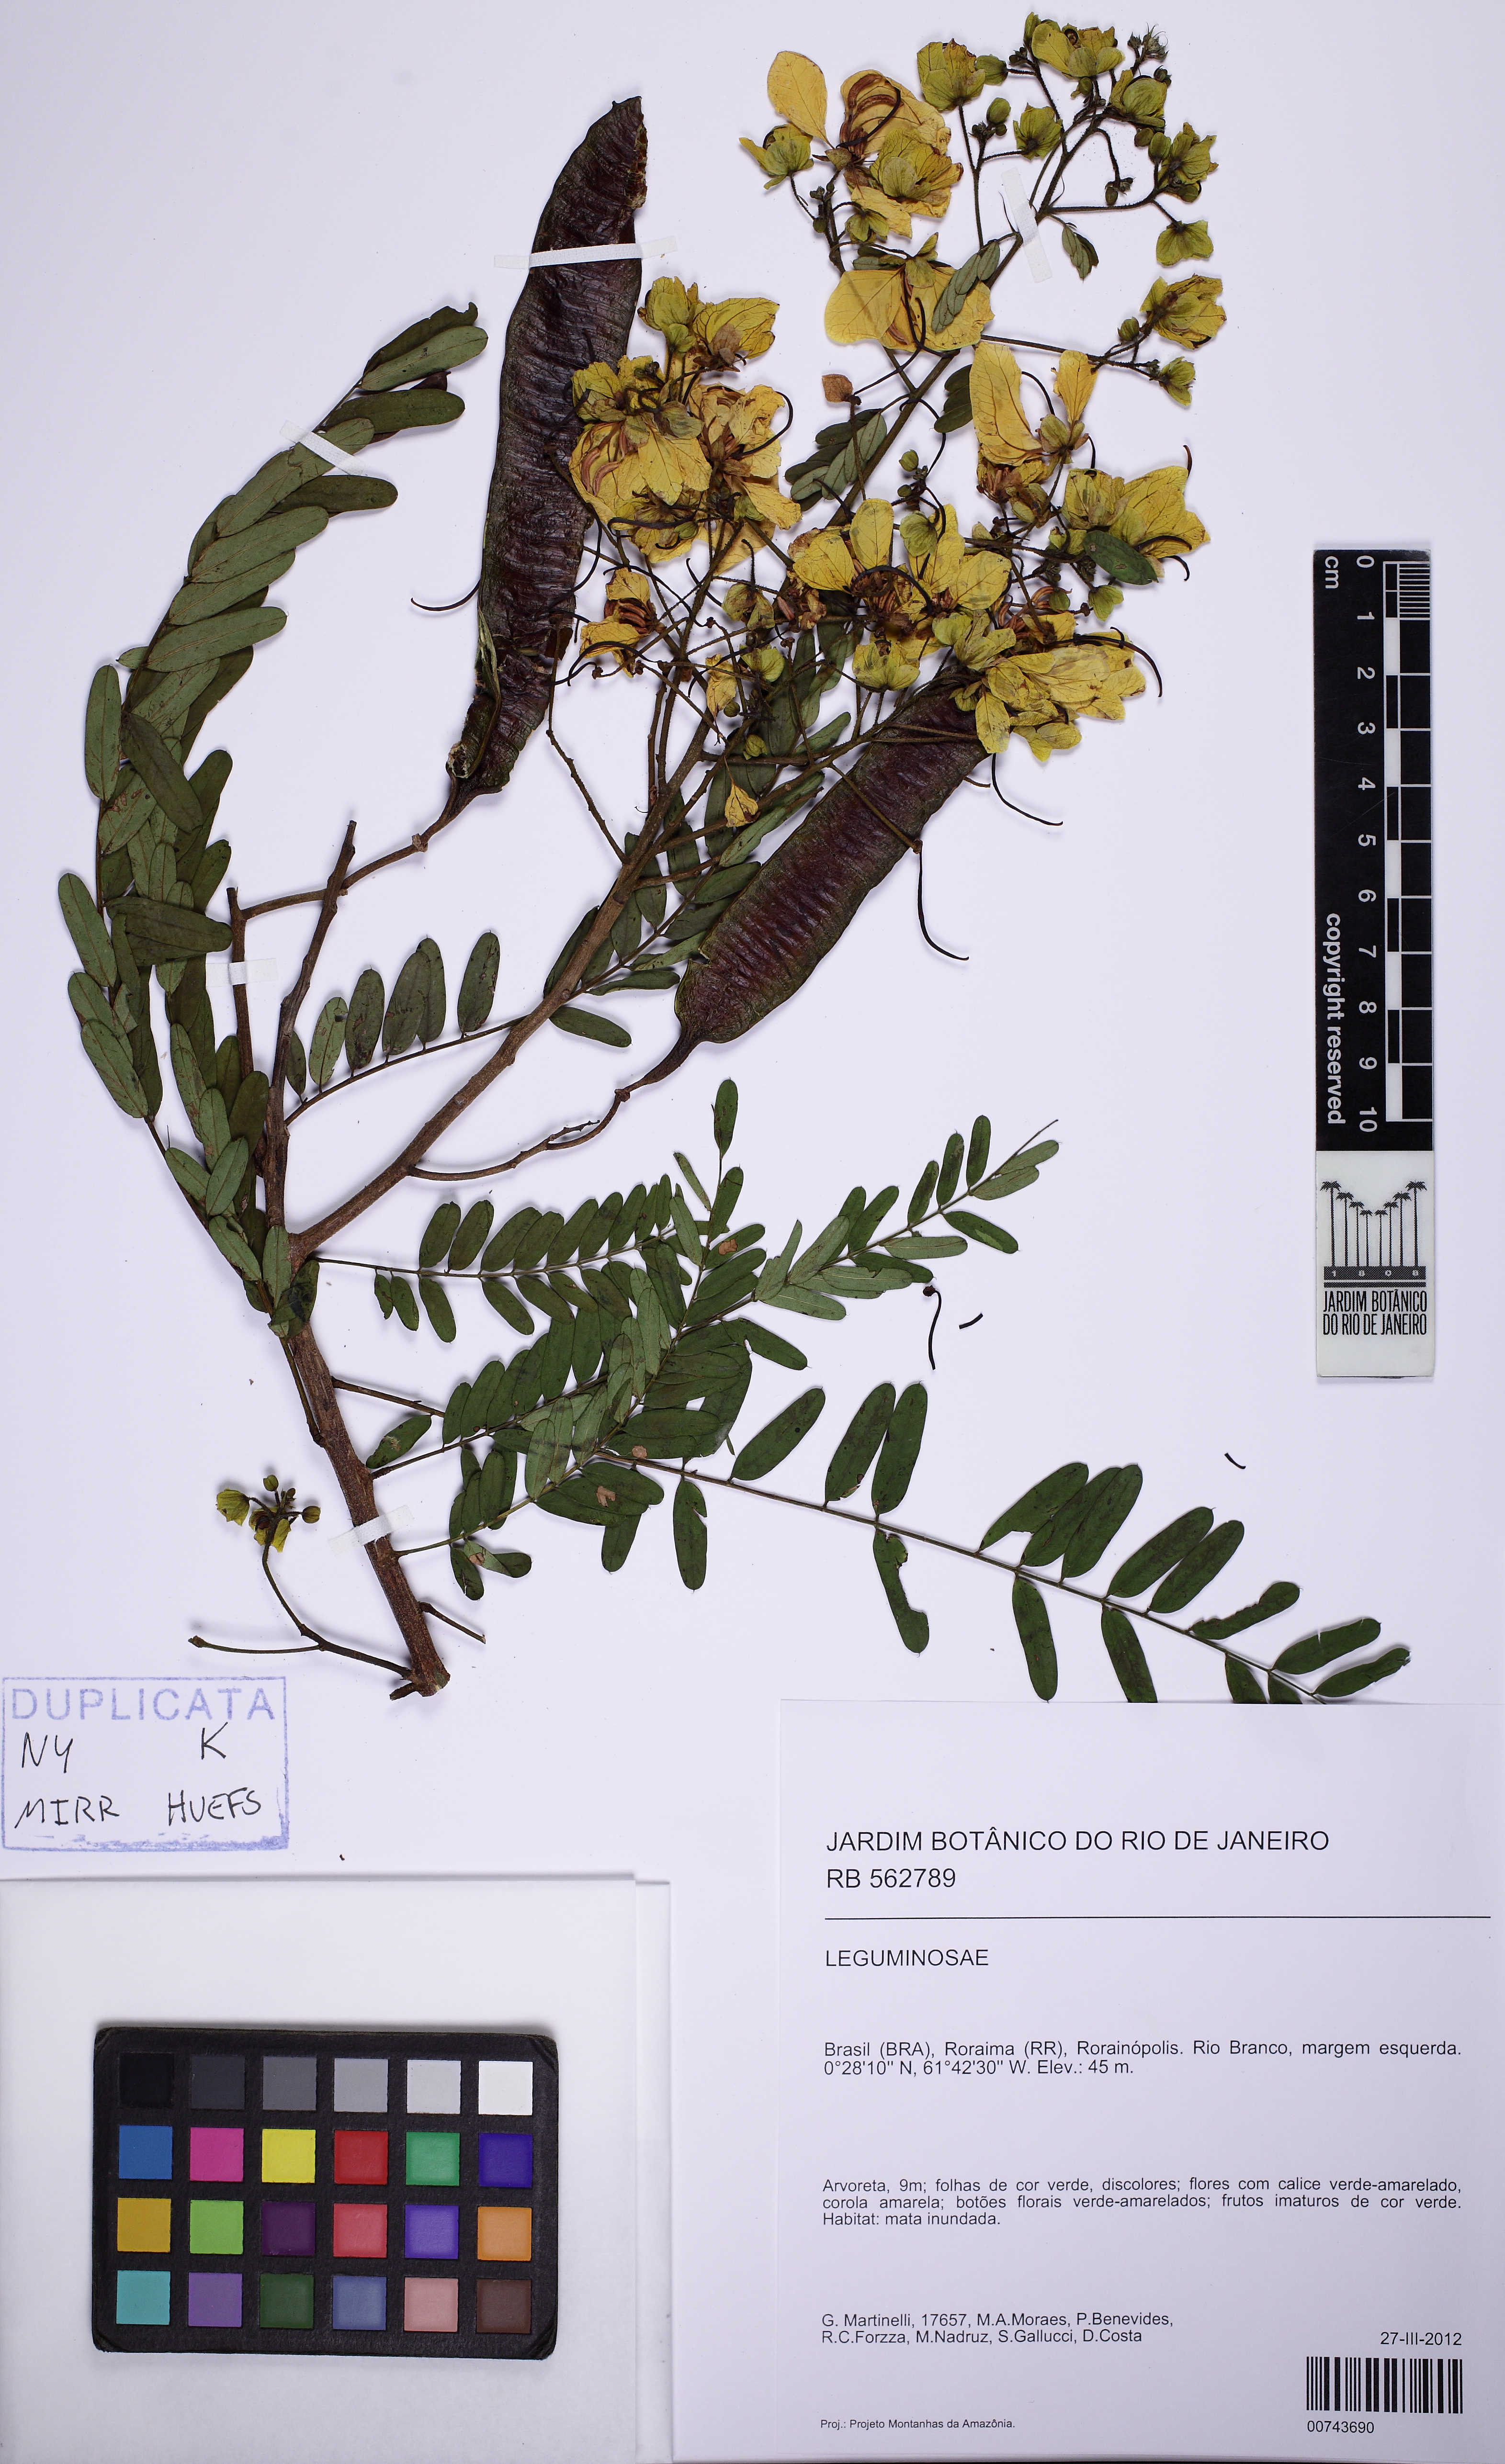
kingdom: Plantae
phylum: Tracheophyta
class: Magnoliopsida
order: Fabales
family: Fabaceae
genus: Senna
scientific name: Senna multijuga
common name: False sicklepod
